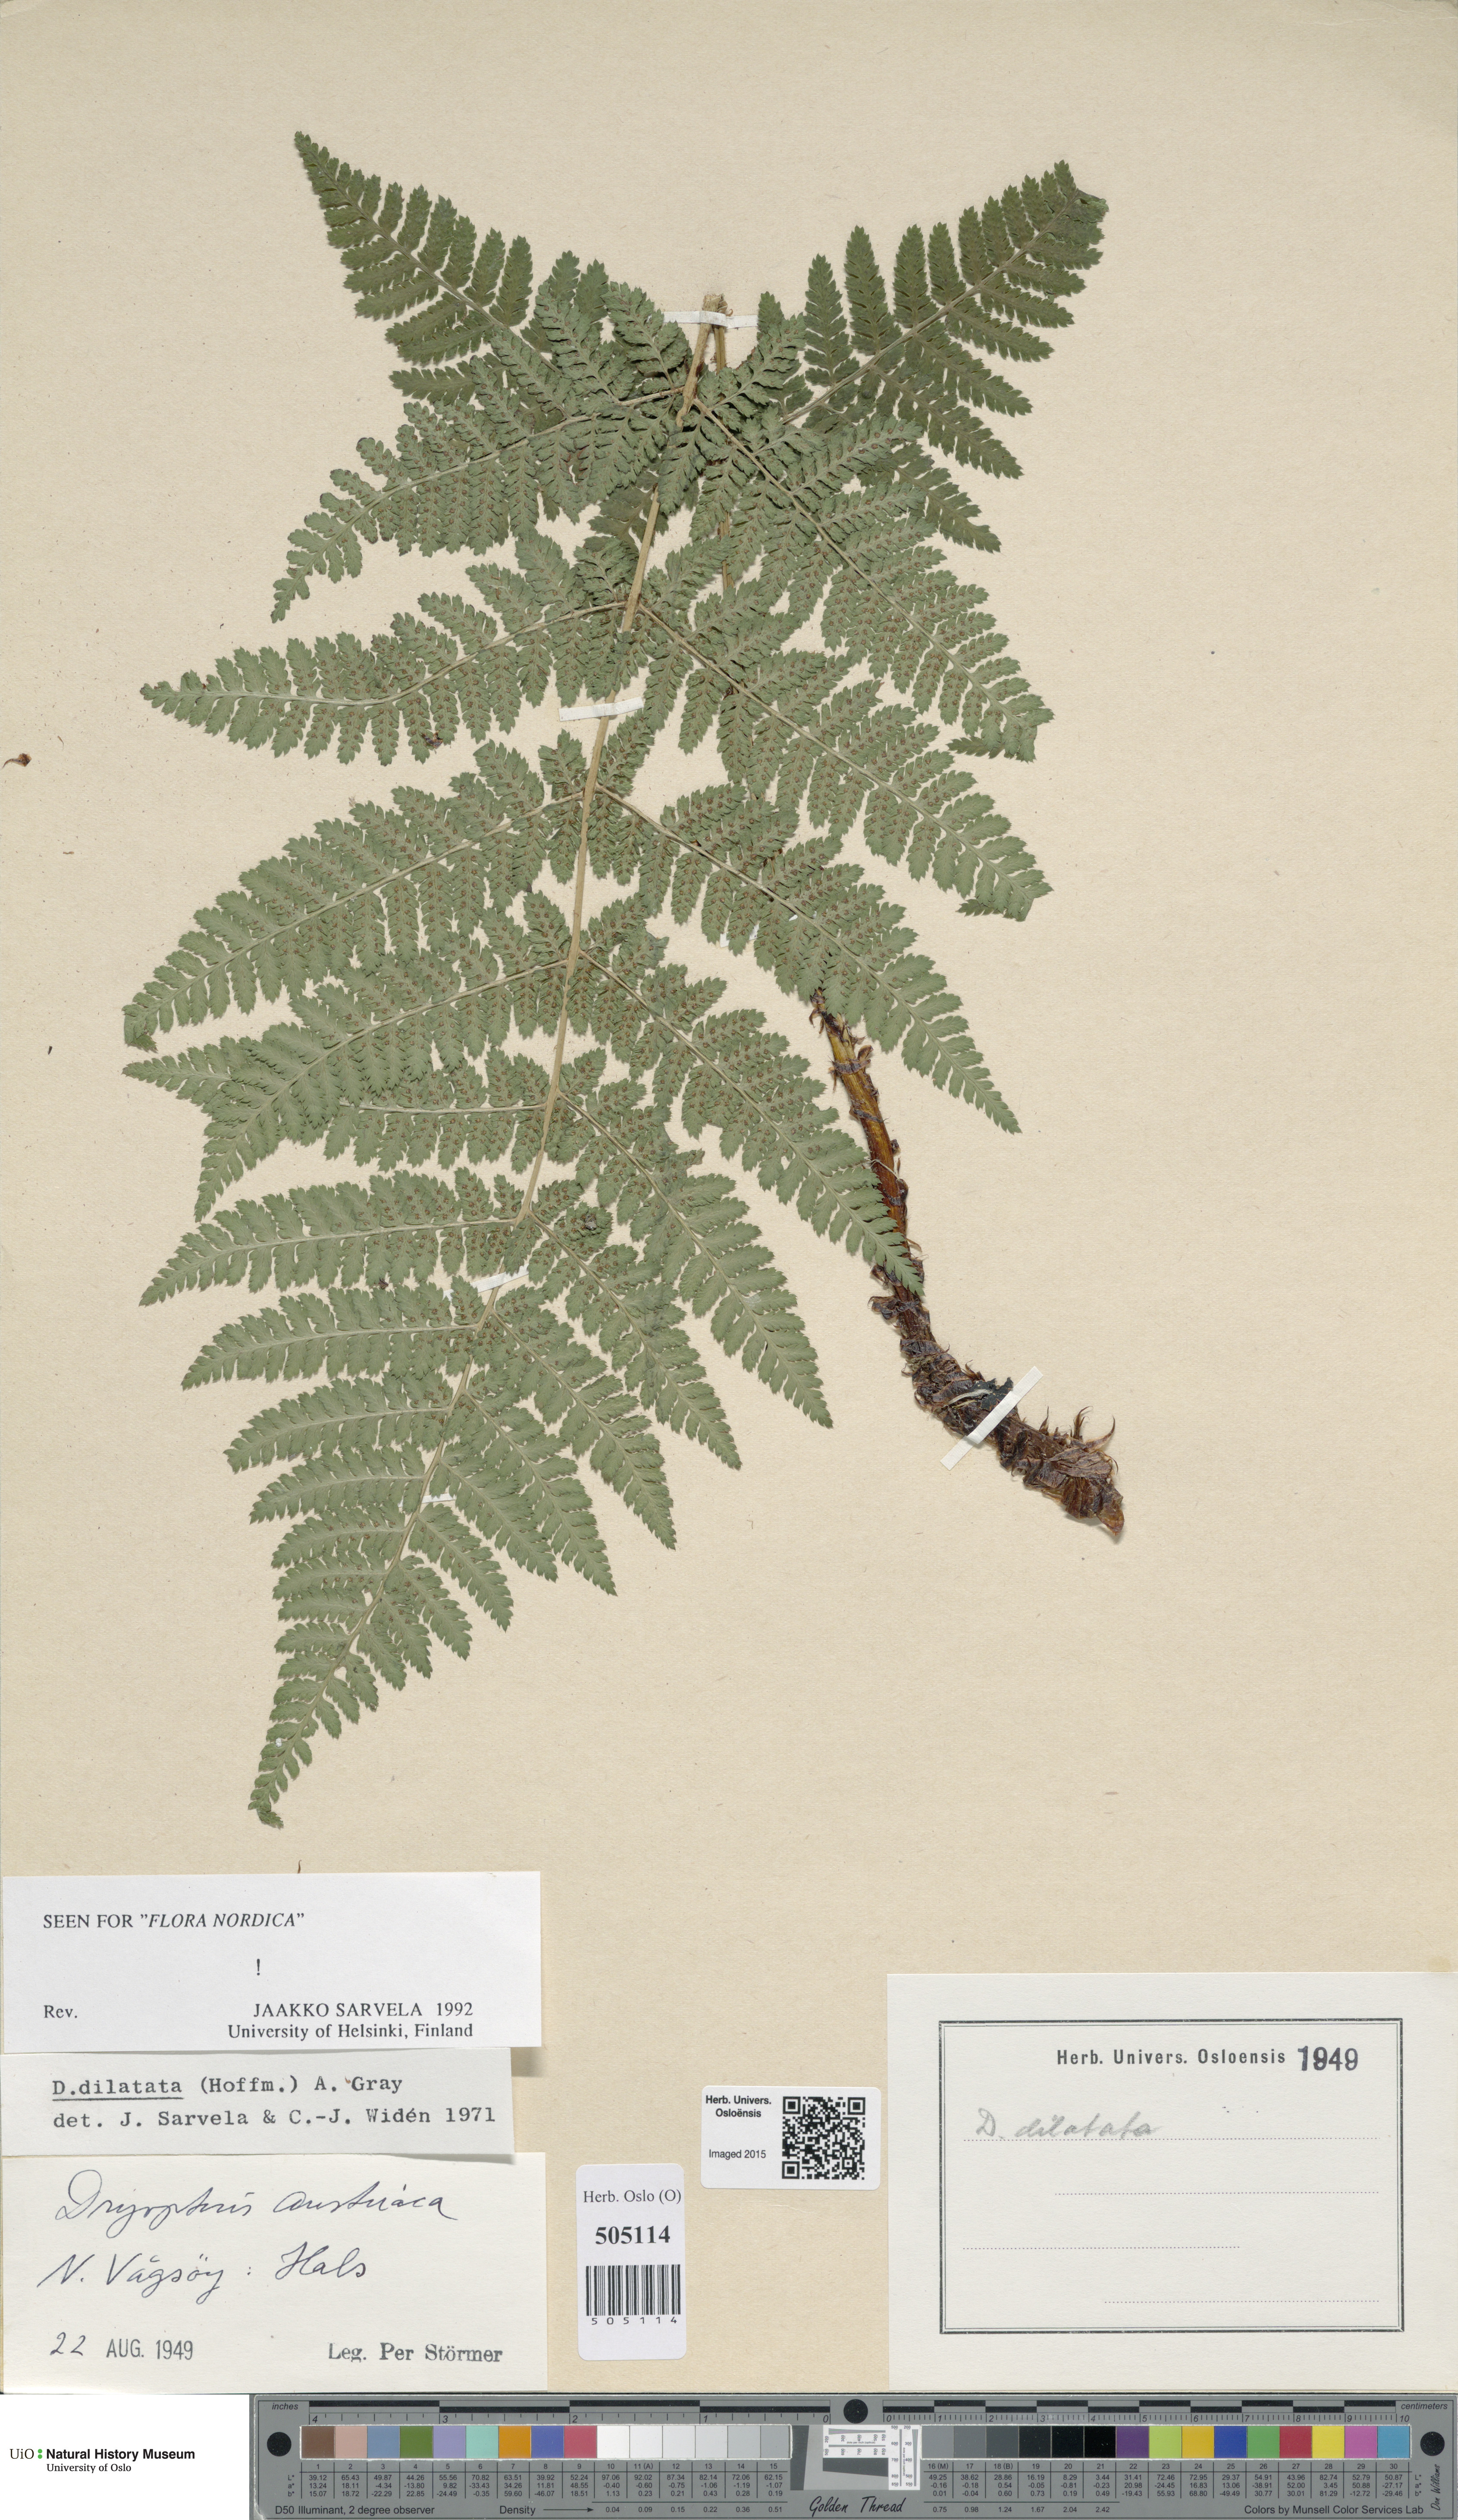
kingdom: Plantae
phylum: Tracheophyta
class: Polypodiopsida
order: Polypodiales
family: Dryopteridaceae
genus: Dryopteris
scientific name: Dryopteris dilatata
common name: Broad buckler-fern
